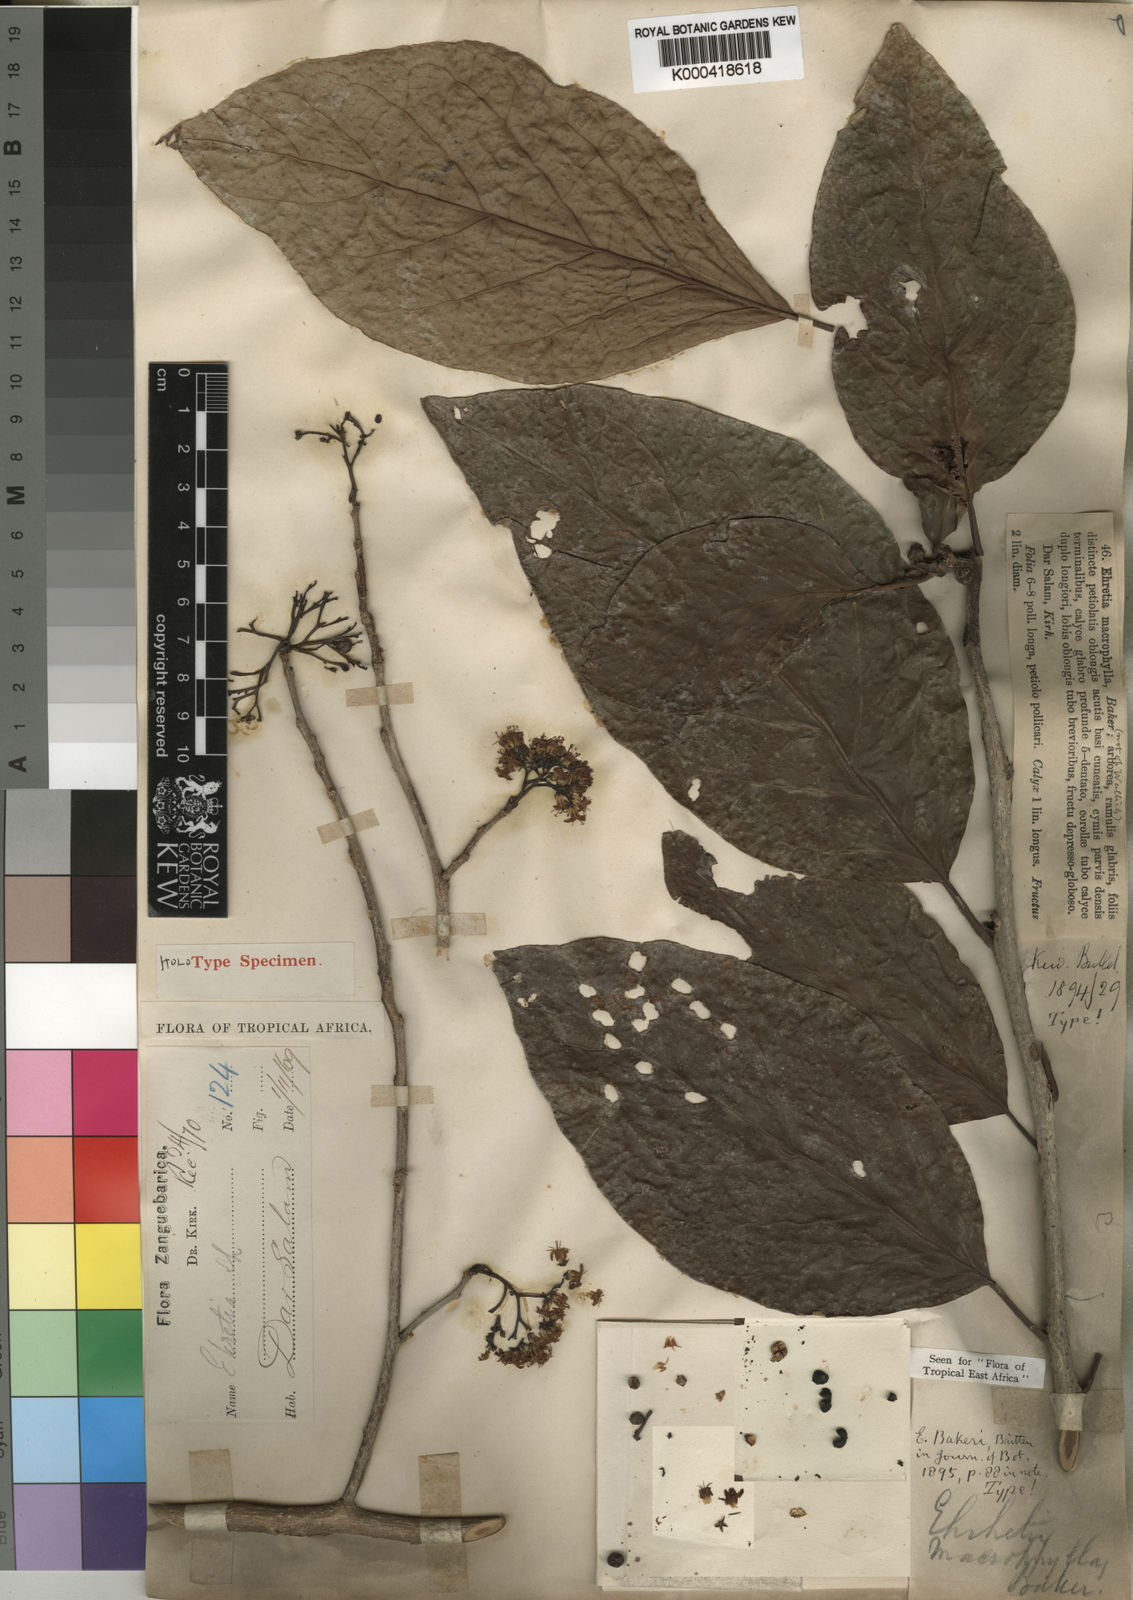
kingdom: Plantae
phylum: Tracheophyta
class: Magnoliopsida
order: Boraginales
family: Ehretiaceae
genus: Ehretia
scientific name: Ehretia
